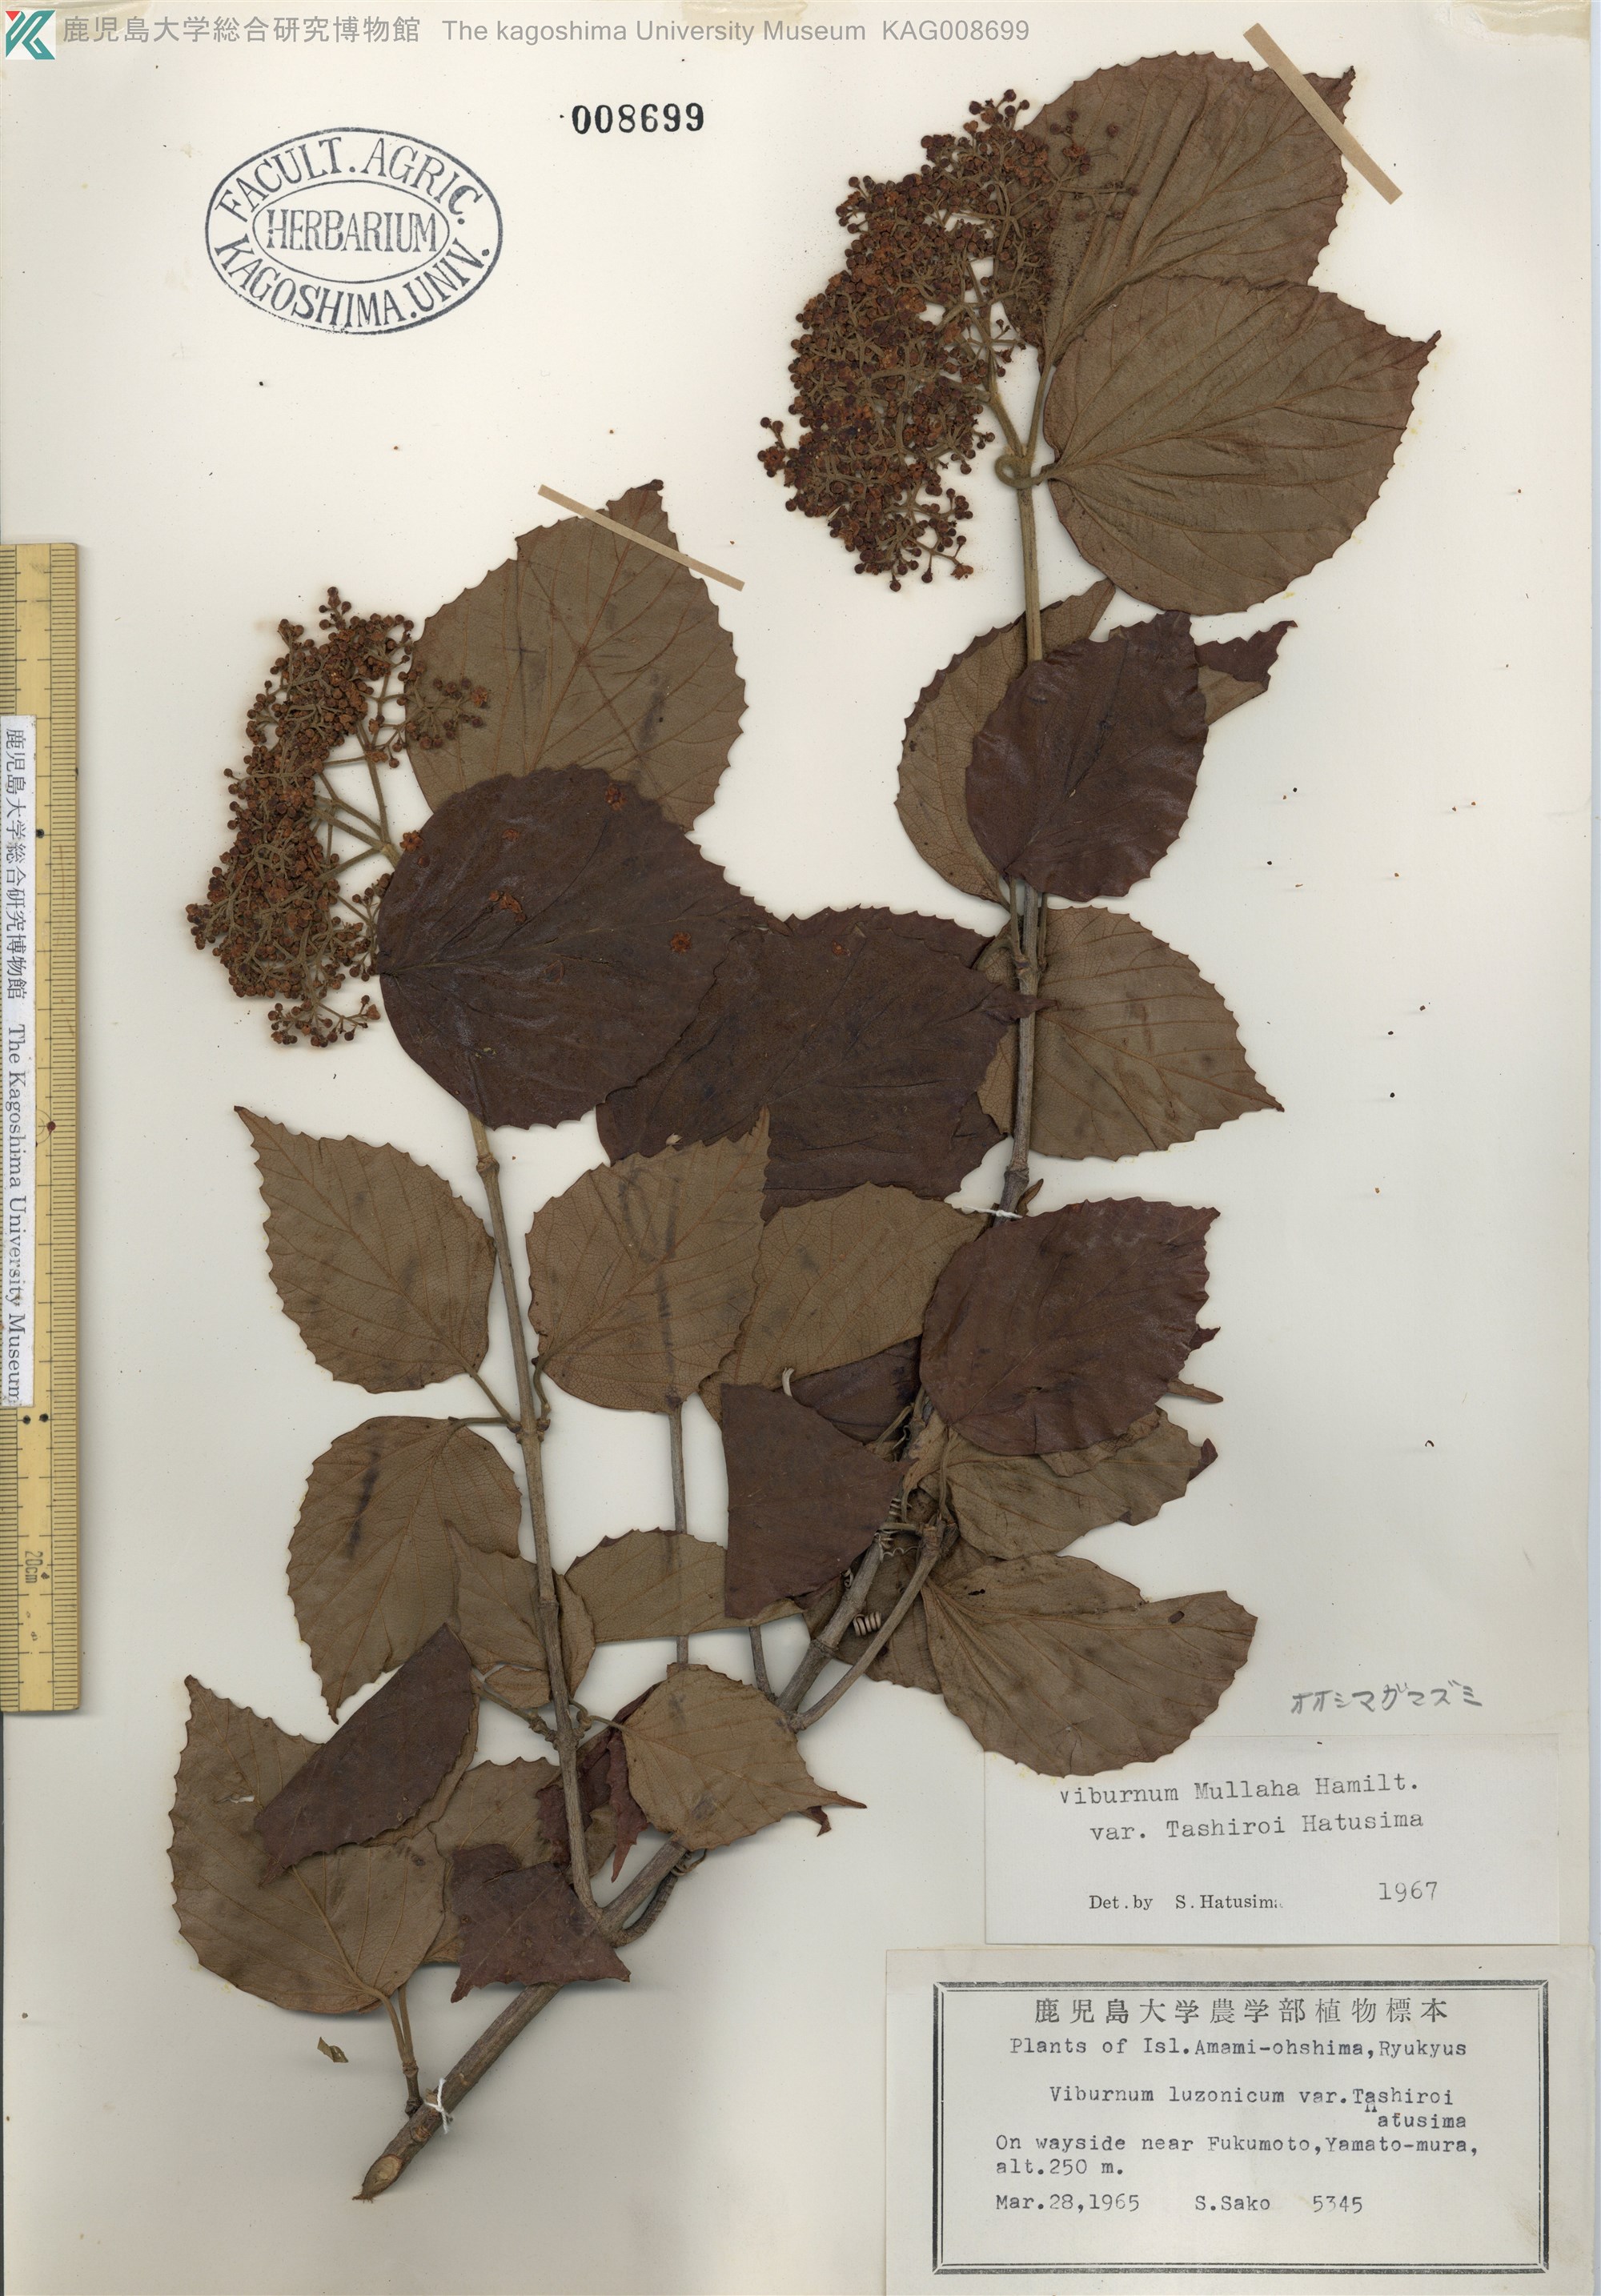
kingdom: Plantae
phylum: Tracheophyta
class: Magnoliopsida
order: Dipsacales
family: Viburnaceae
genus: Viburnum
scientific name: Viburnum luzonicum
